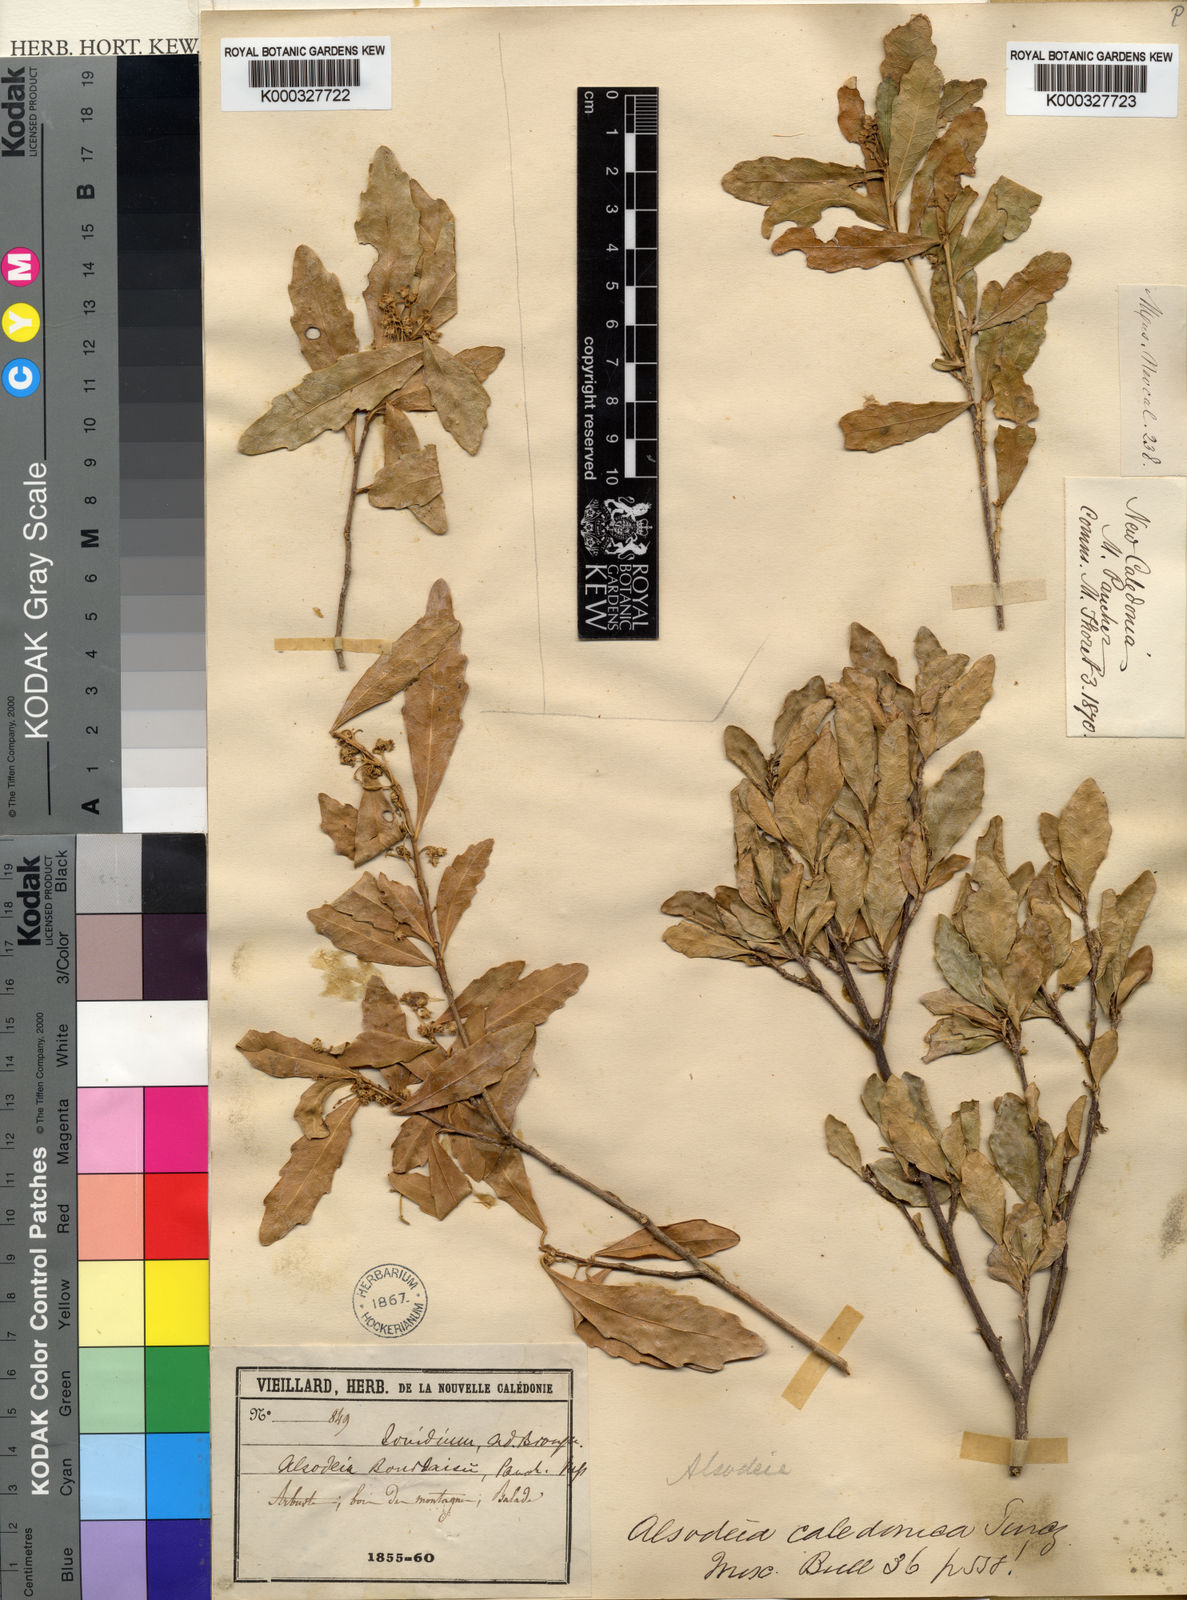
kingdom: Plantae
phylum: Tracheophyta
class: Magnoliopsida
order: Malpighiales
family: Violaceae
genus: Pigea
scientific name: Pigea caledonica
